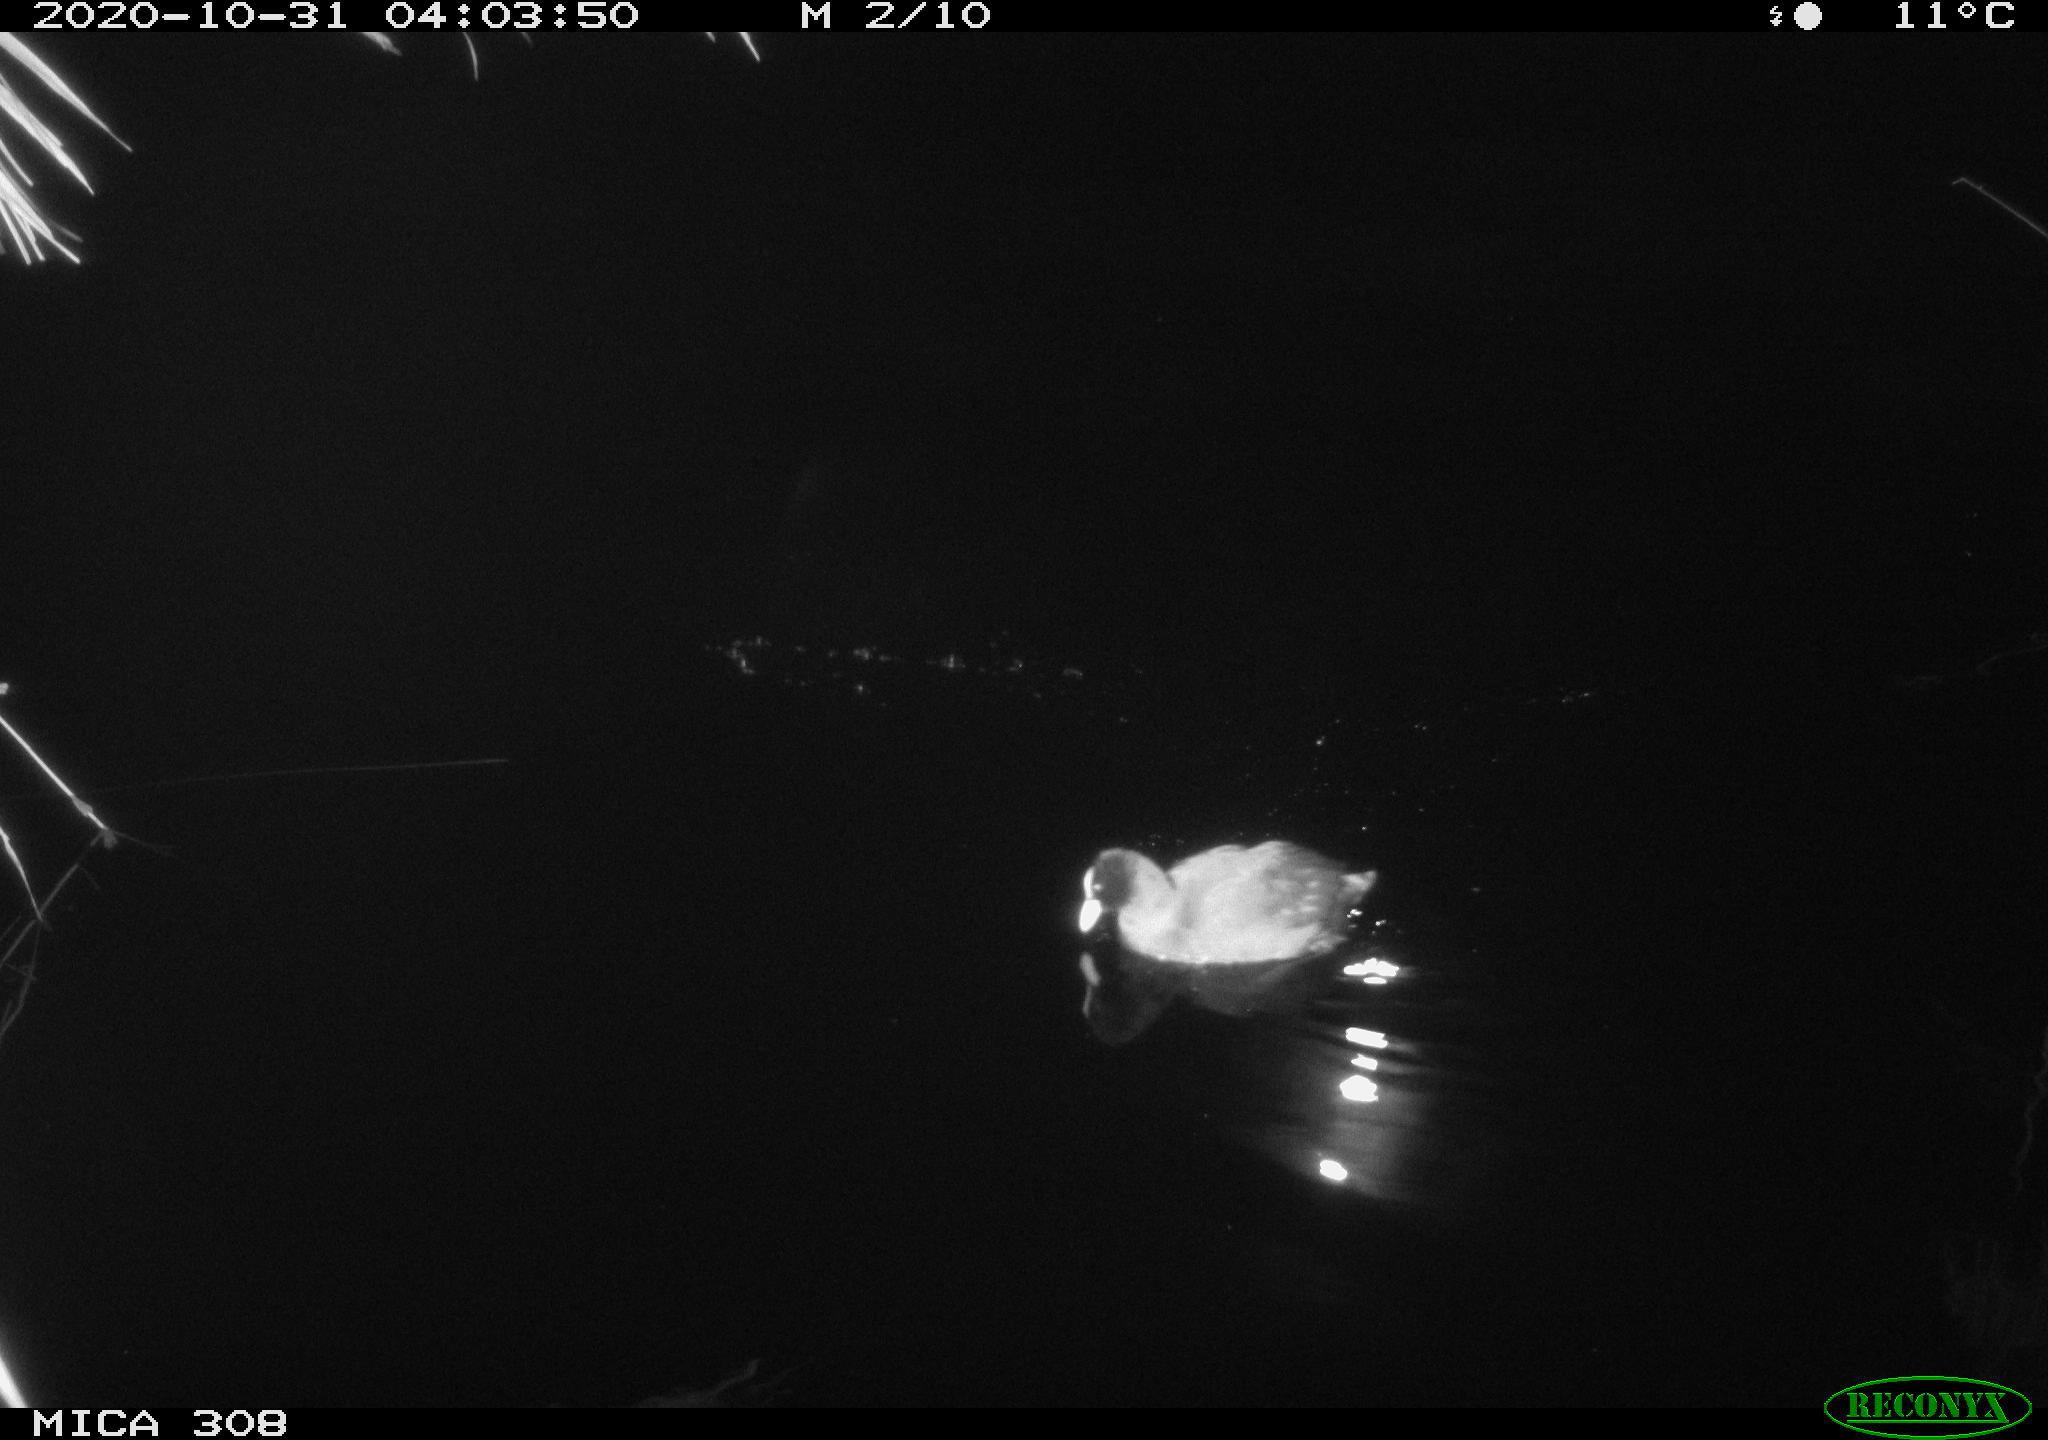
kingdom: Animalia
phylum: Chordata
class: Aves
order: Gruiformes
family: Rallidae
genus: Fulica
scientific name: Fulica atra
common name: Eurasian coot
